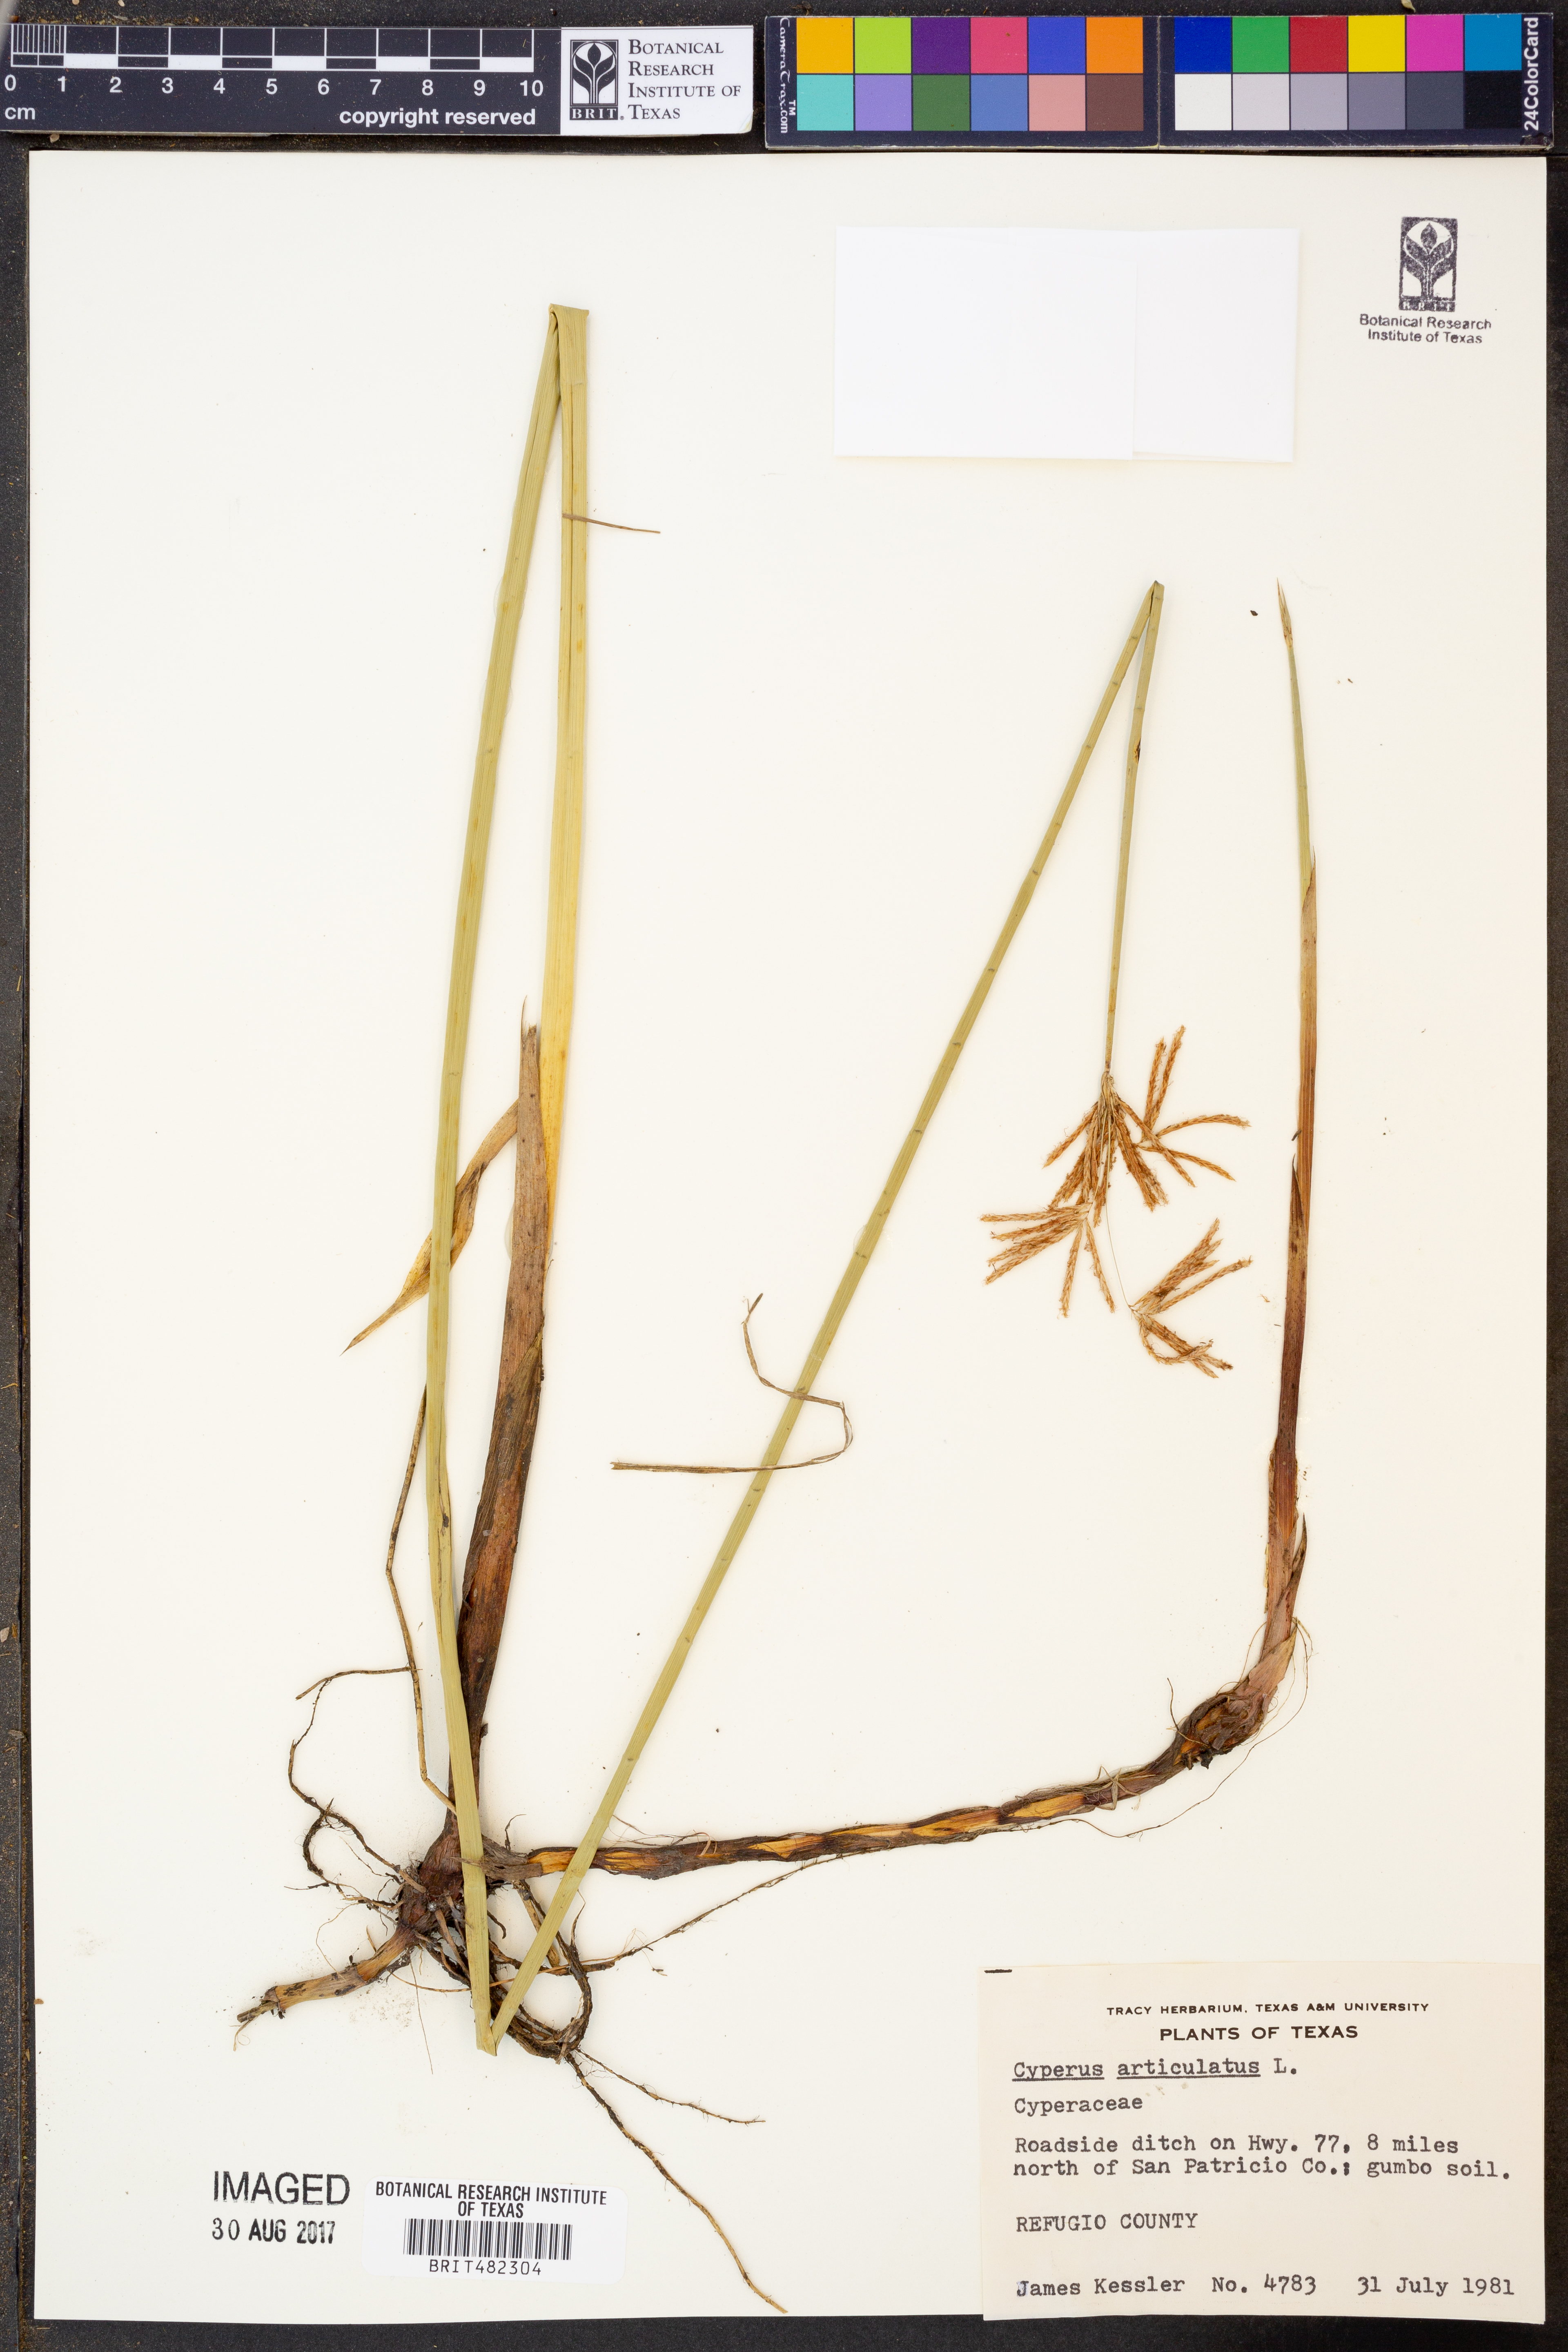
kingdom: Plantae
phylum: Tracheophyta
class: Liliopsida
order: Poales
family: Cyperaceae
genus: Cyperus
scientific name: Cyperus articulatus
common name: Jointed flatsedge
